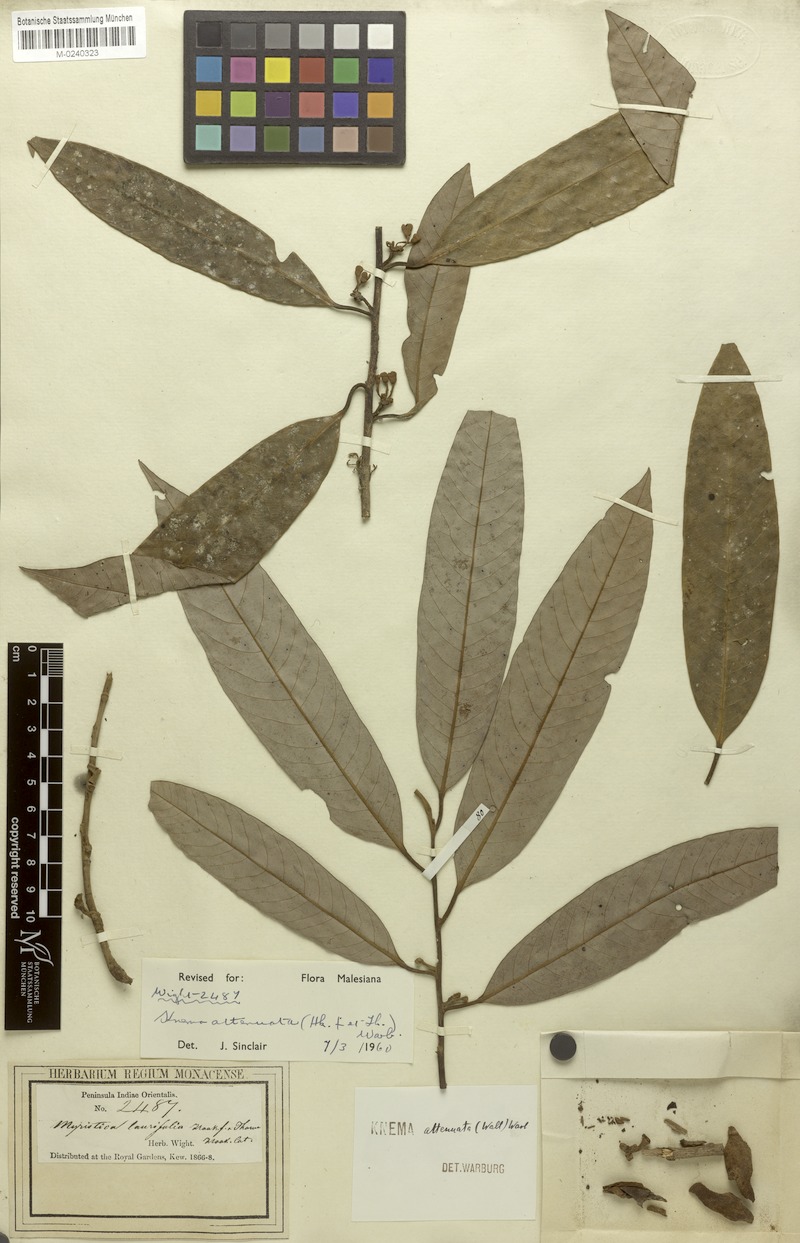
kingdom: Plantae
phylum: Tracheophyta
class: Magnoliopsida
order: Magnoliales
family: Myristicaceae
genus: Knema
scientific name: Knema attenuata
